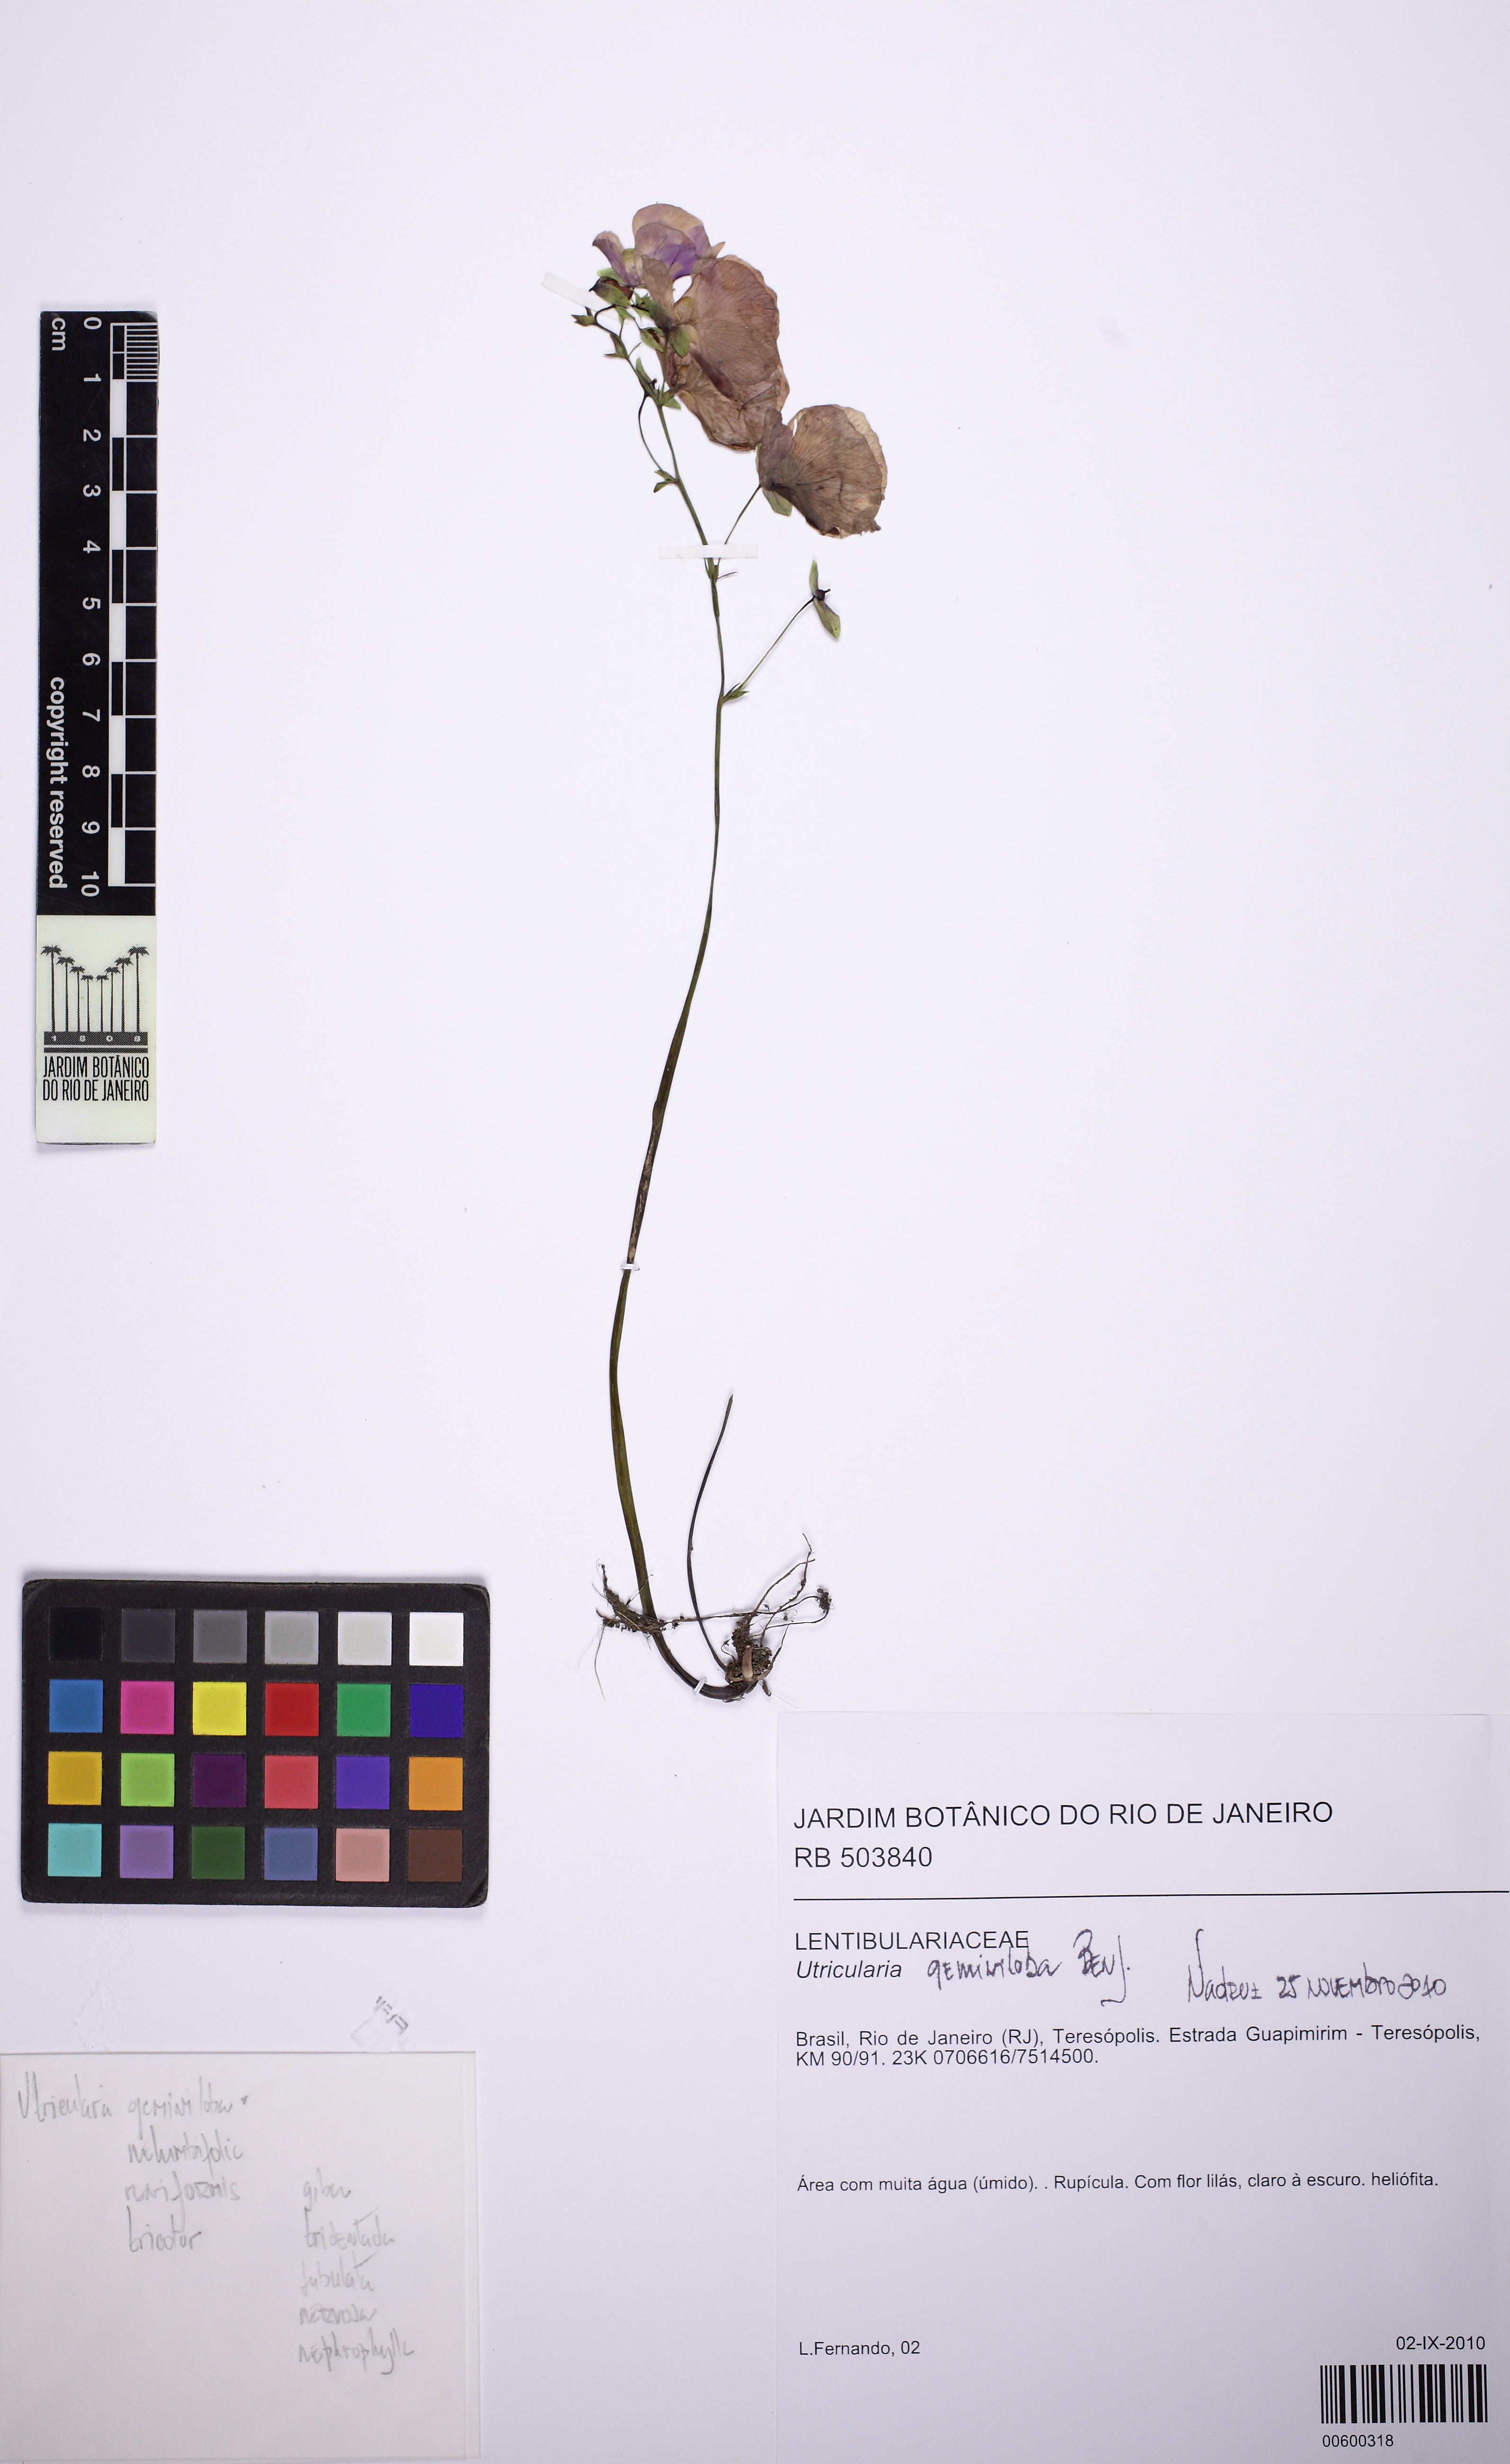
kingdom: Plantae
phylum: Tracheophyta
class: Magnoliopsida
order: Lamiales
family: Lentibulariaceae
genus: Utricularia
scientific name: Utricularia geminiloba
